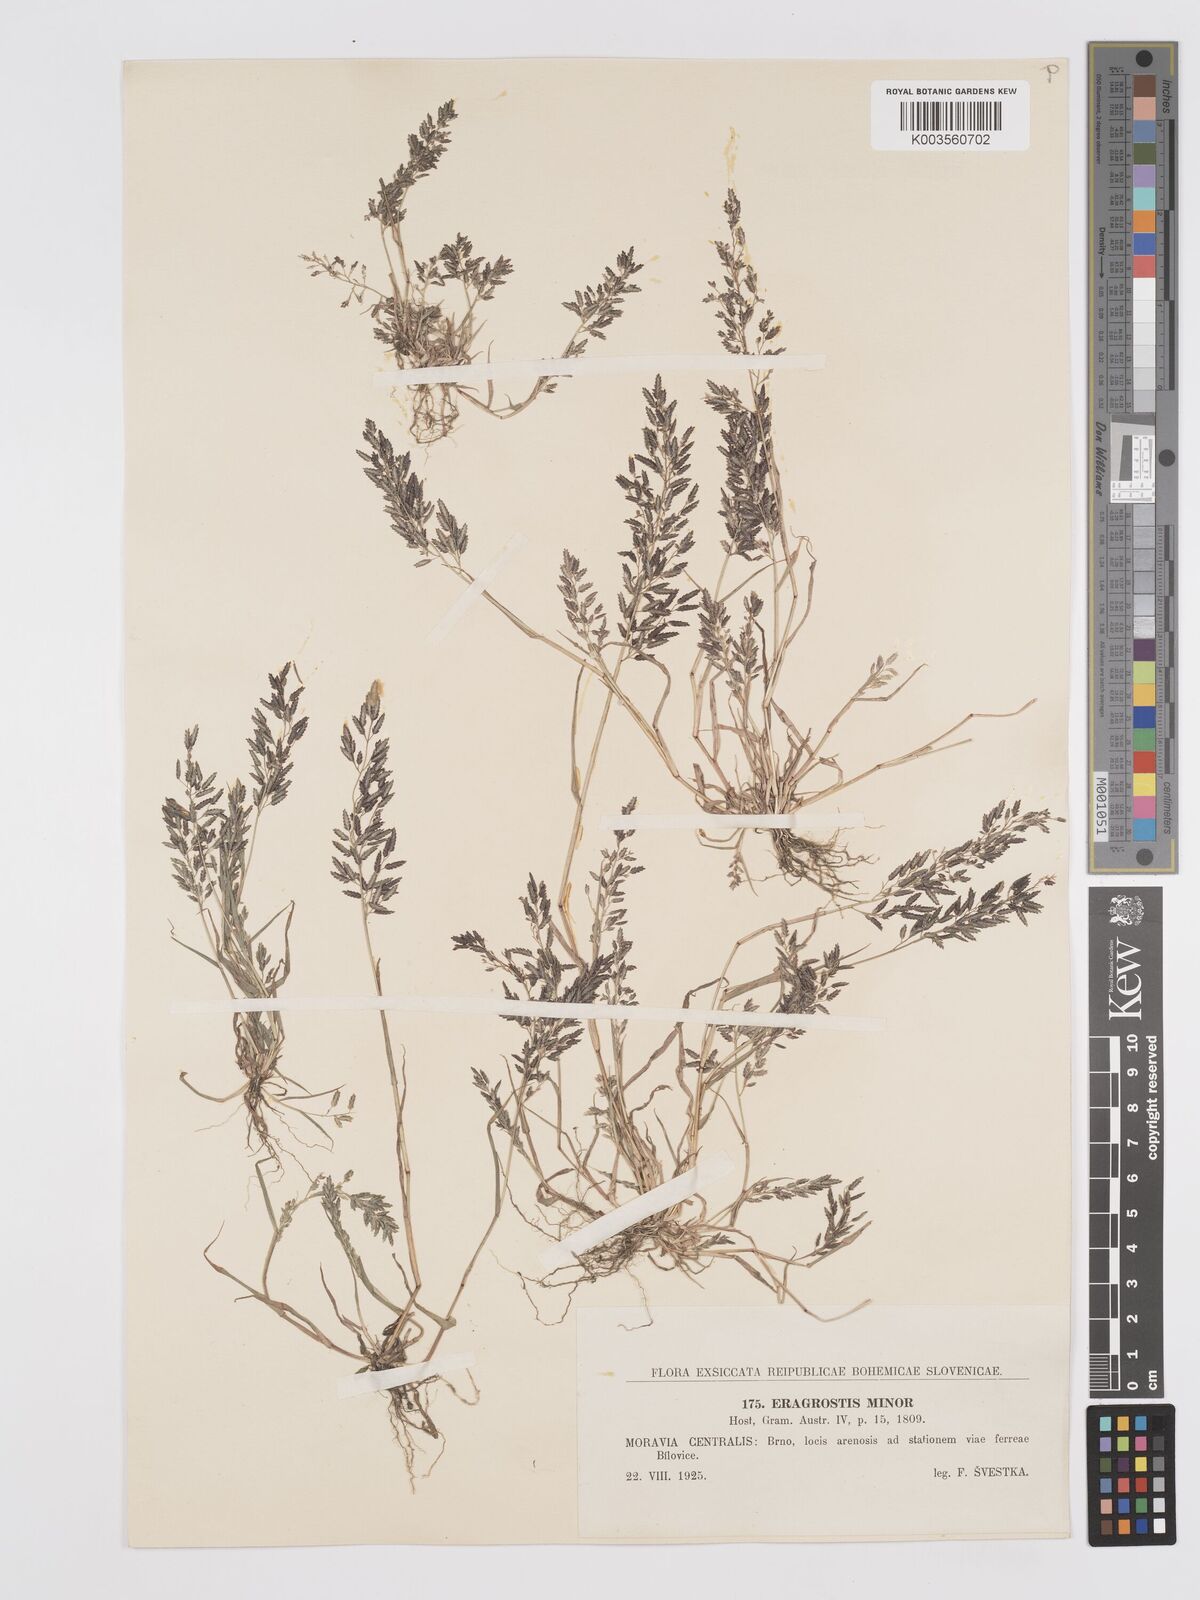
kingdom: Plantae
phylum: Tracheophyta
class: Liliopsida
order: Poales
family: Poaceae
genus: Eragrostis
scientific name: Eragrostis minor
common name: Small love-grass
